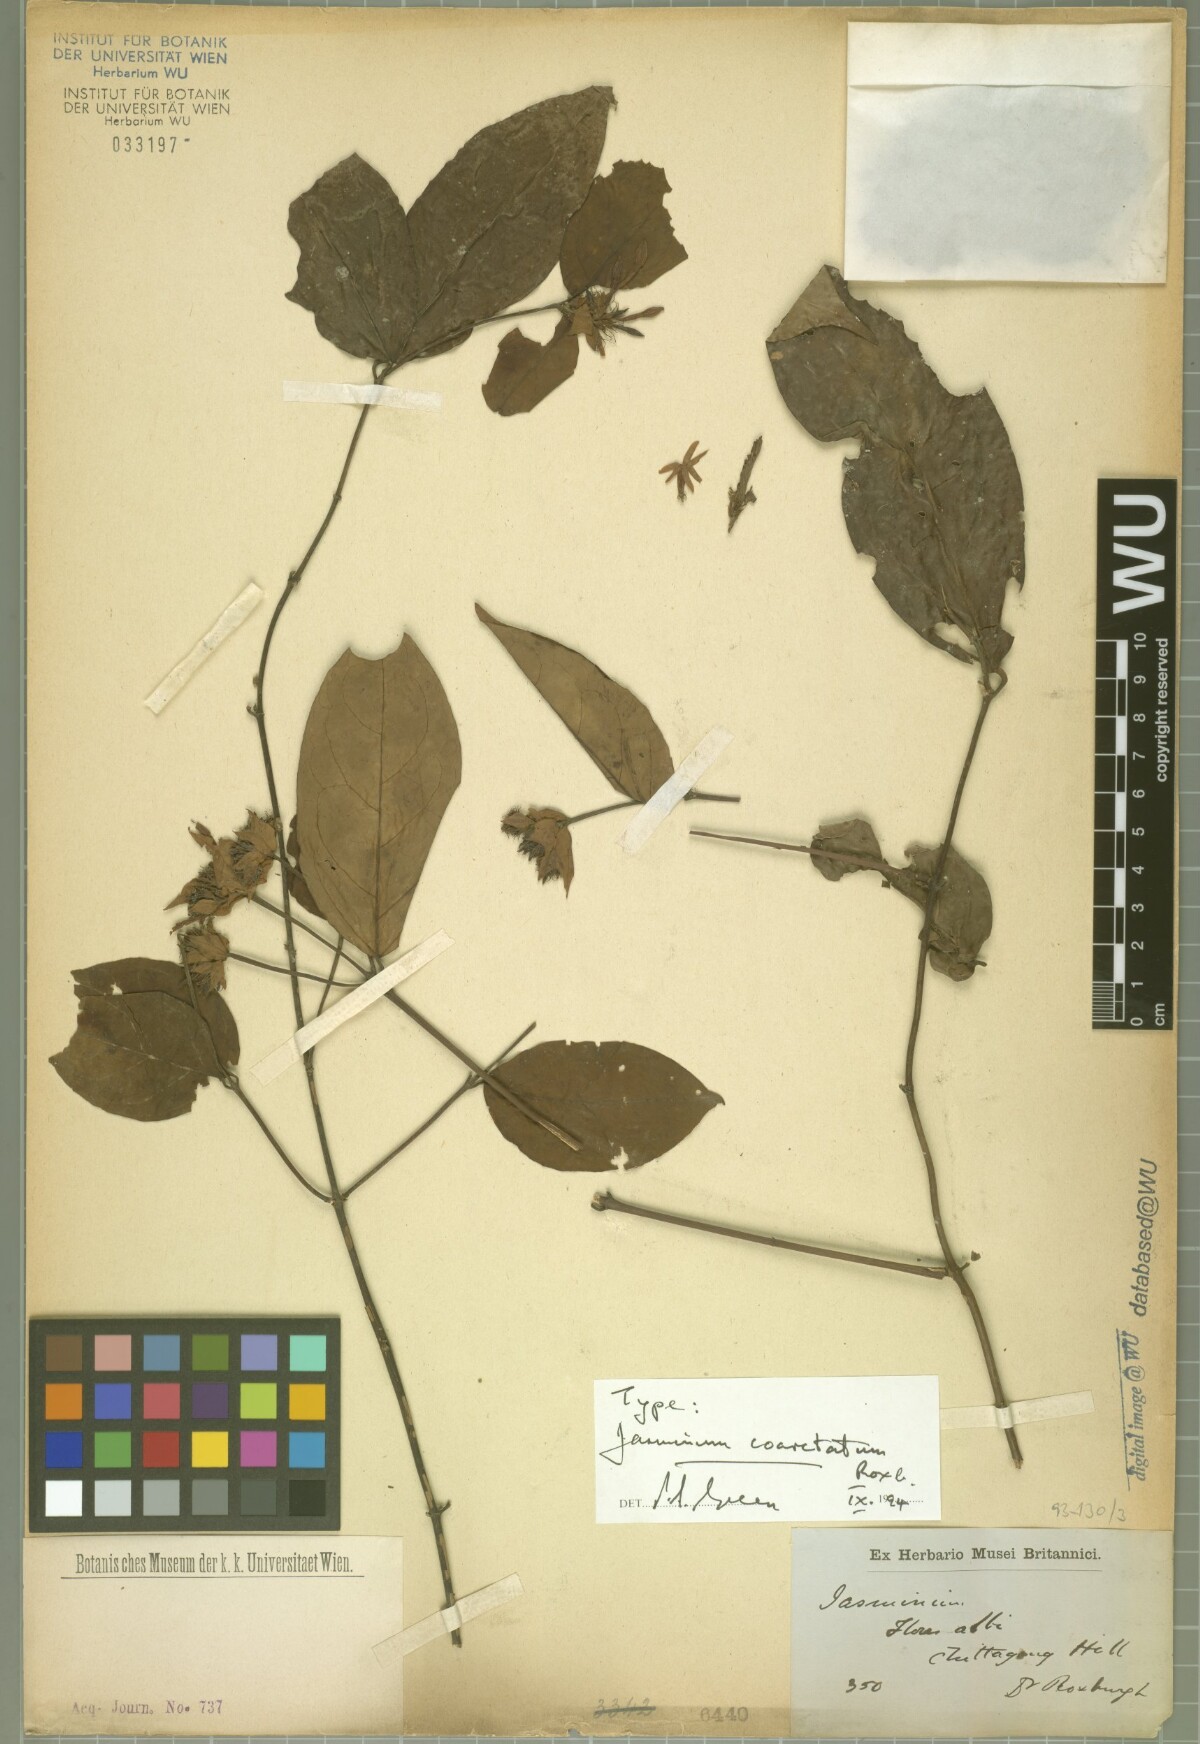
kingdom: Plantae
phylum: Tracheophyta
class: Magnoliopsida
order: Lamiales
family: Oleaceae
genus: Jasminum
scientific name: Jasminum coarctatum
